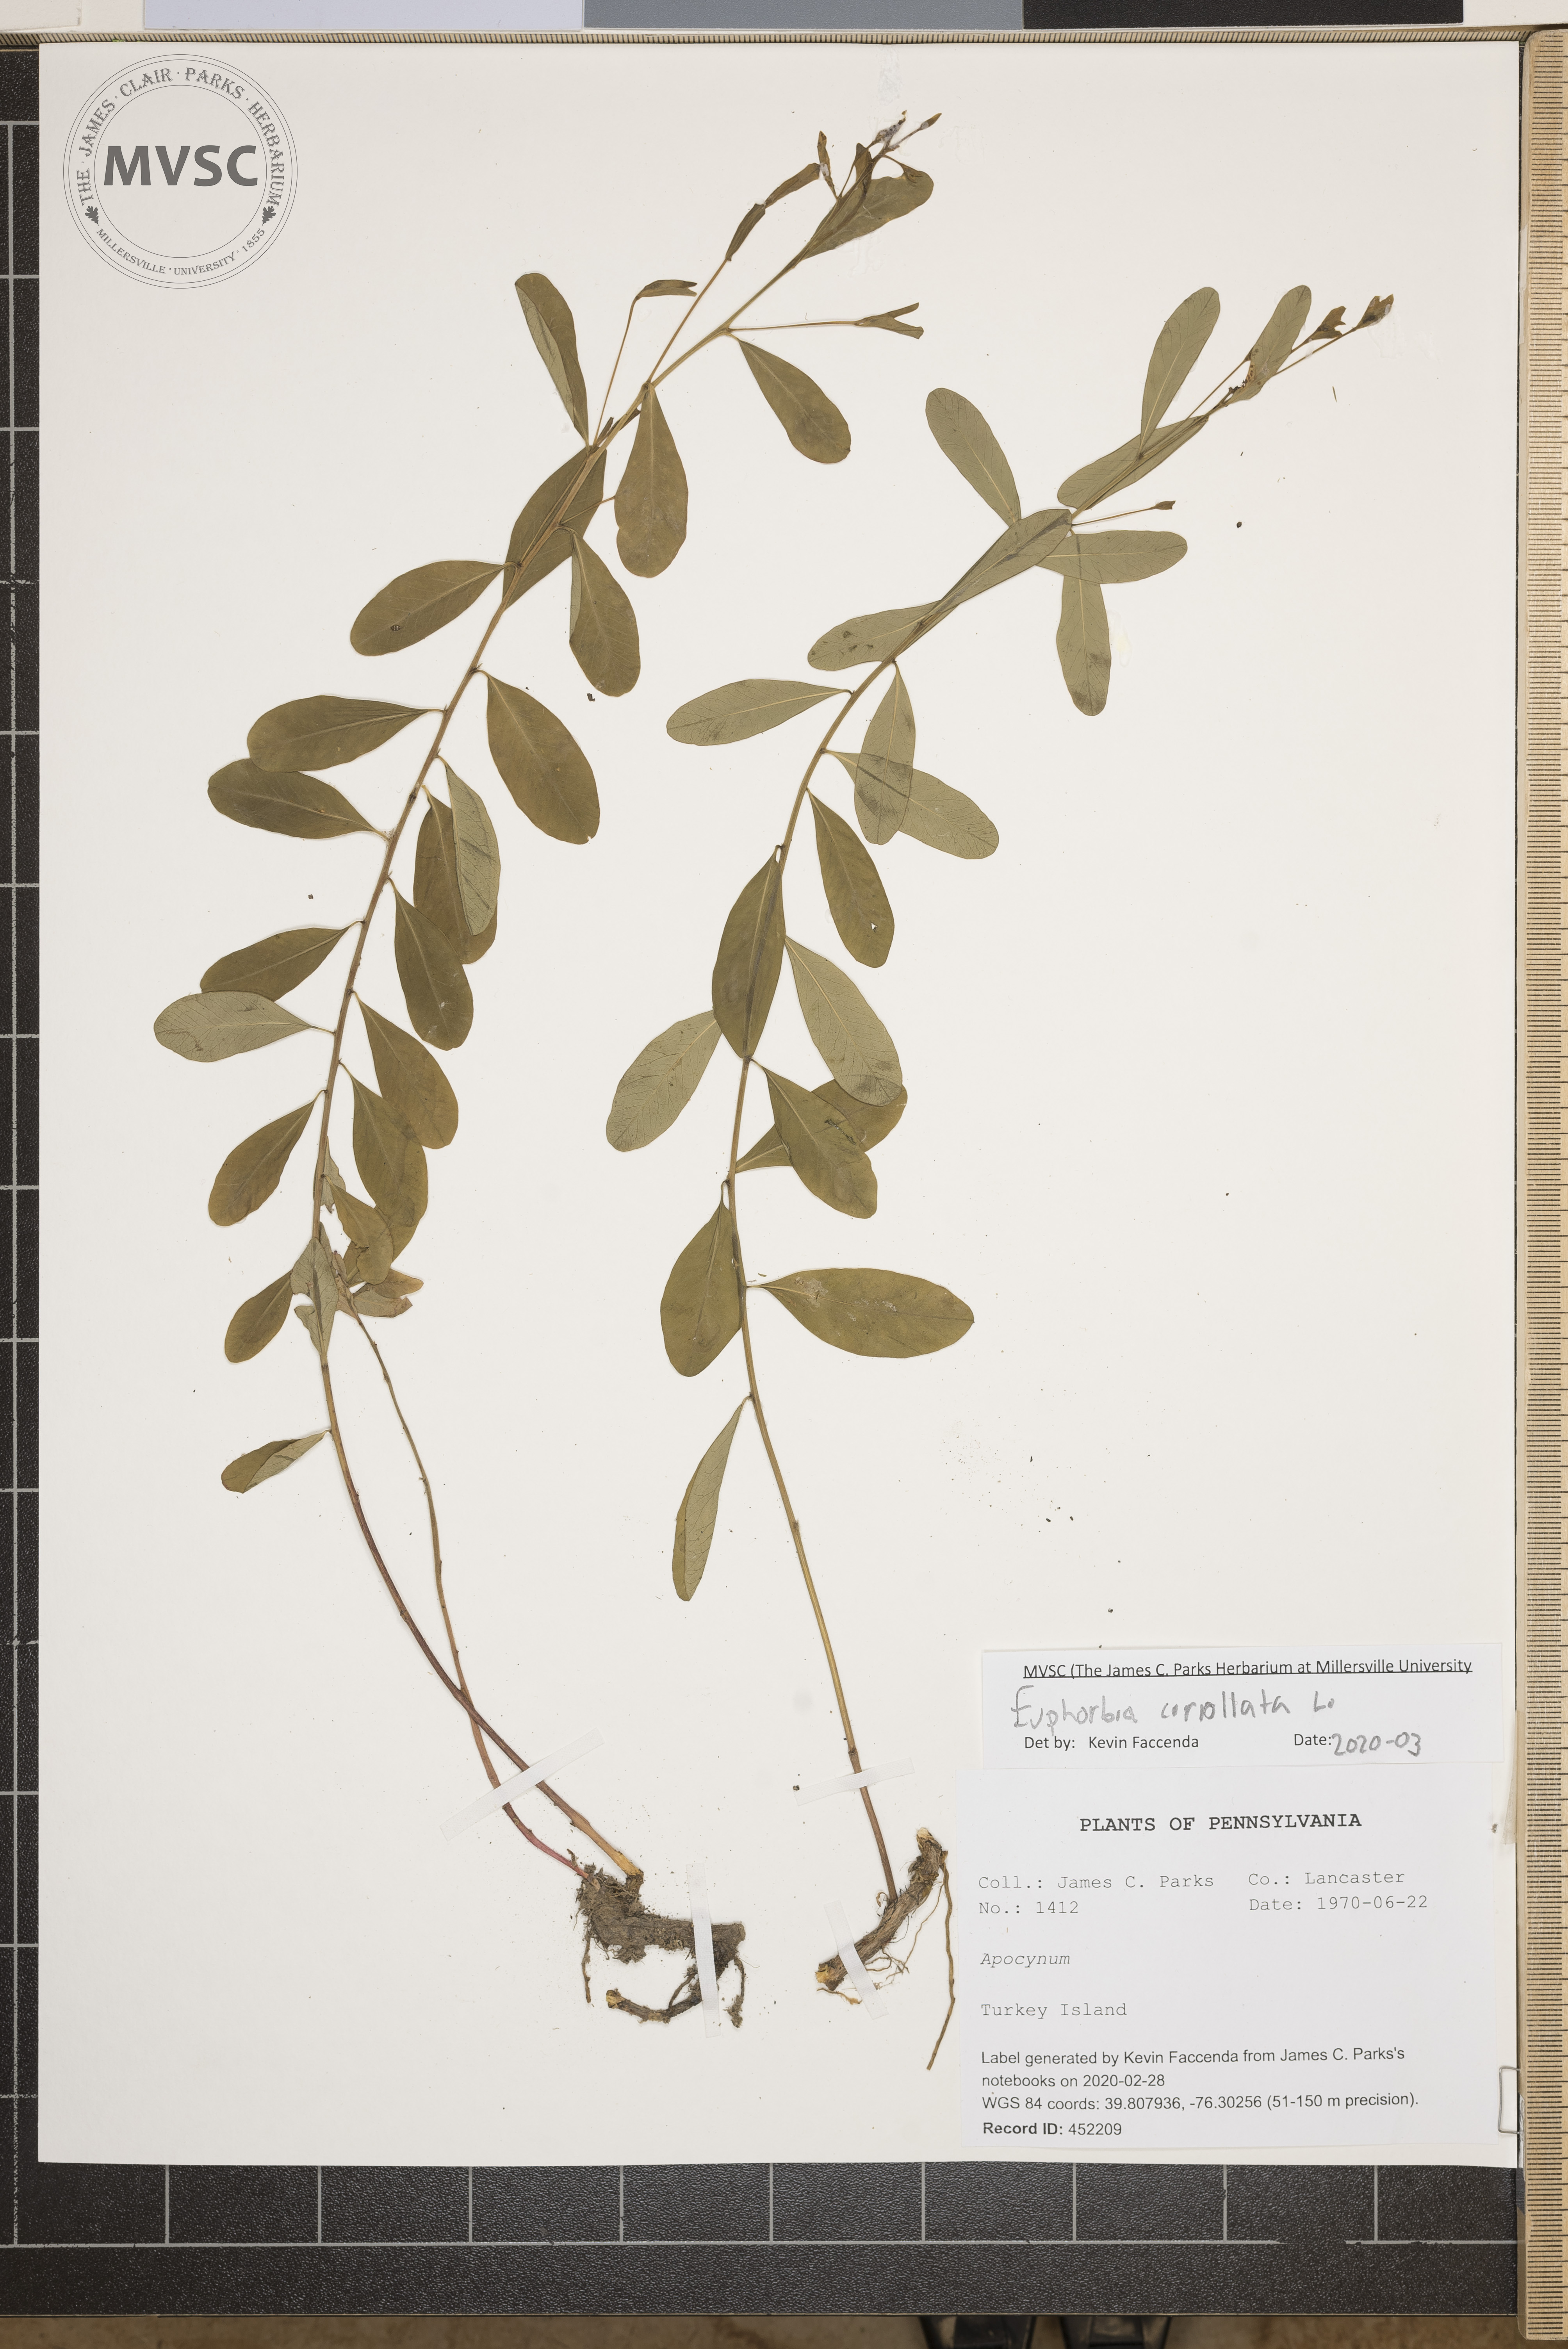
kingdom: Plantae
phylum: Tracheophyta
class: Magnoliopsida
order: Malpighiales
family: Euphorbiaceae
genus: Euphorbia
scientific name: Euphorbia corollata
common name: Flowering spurge
